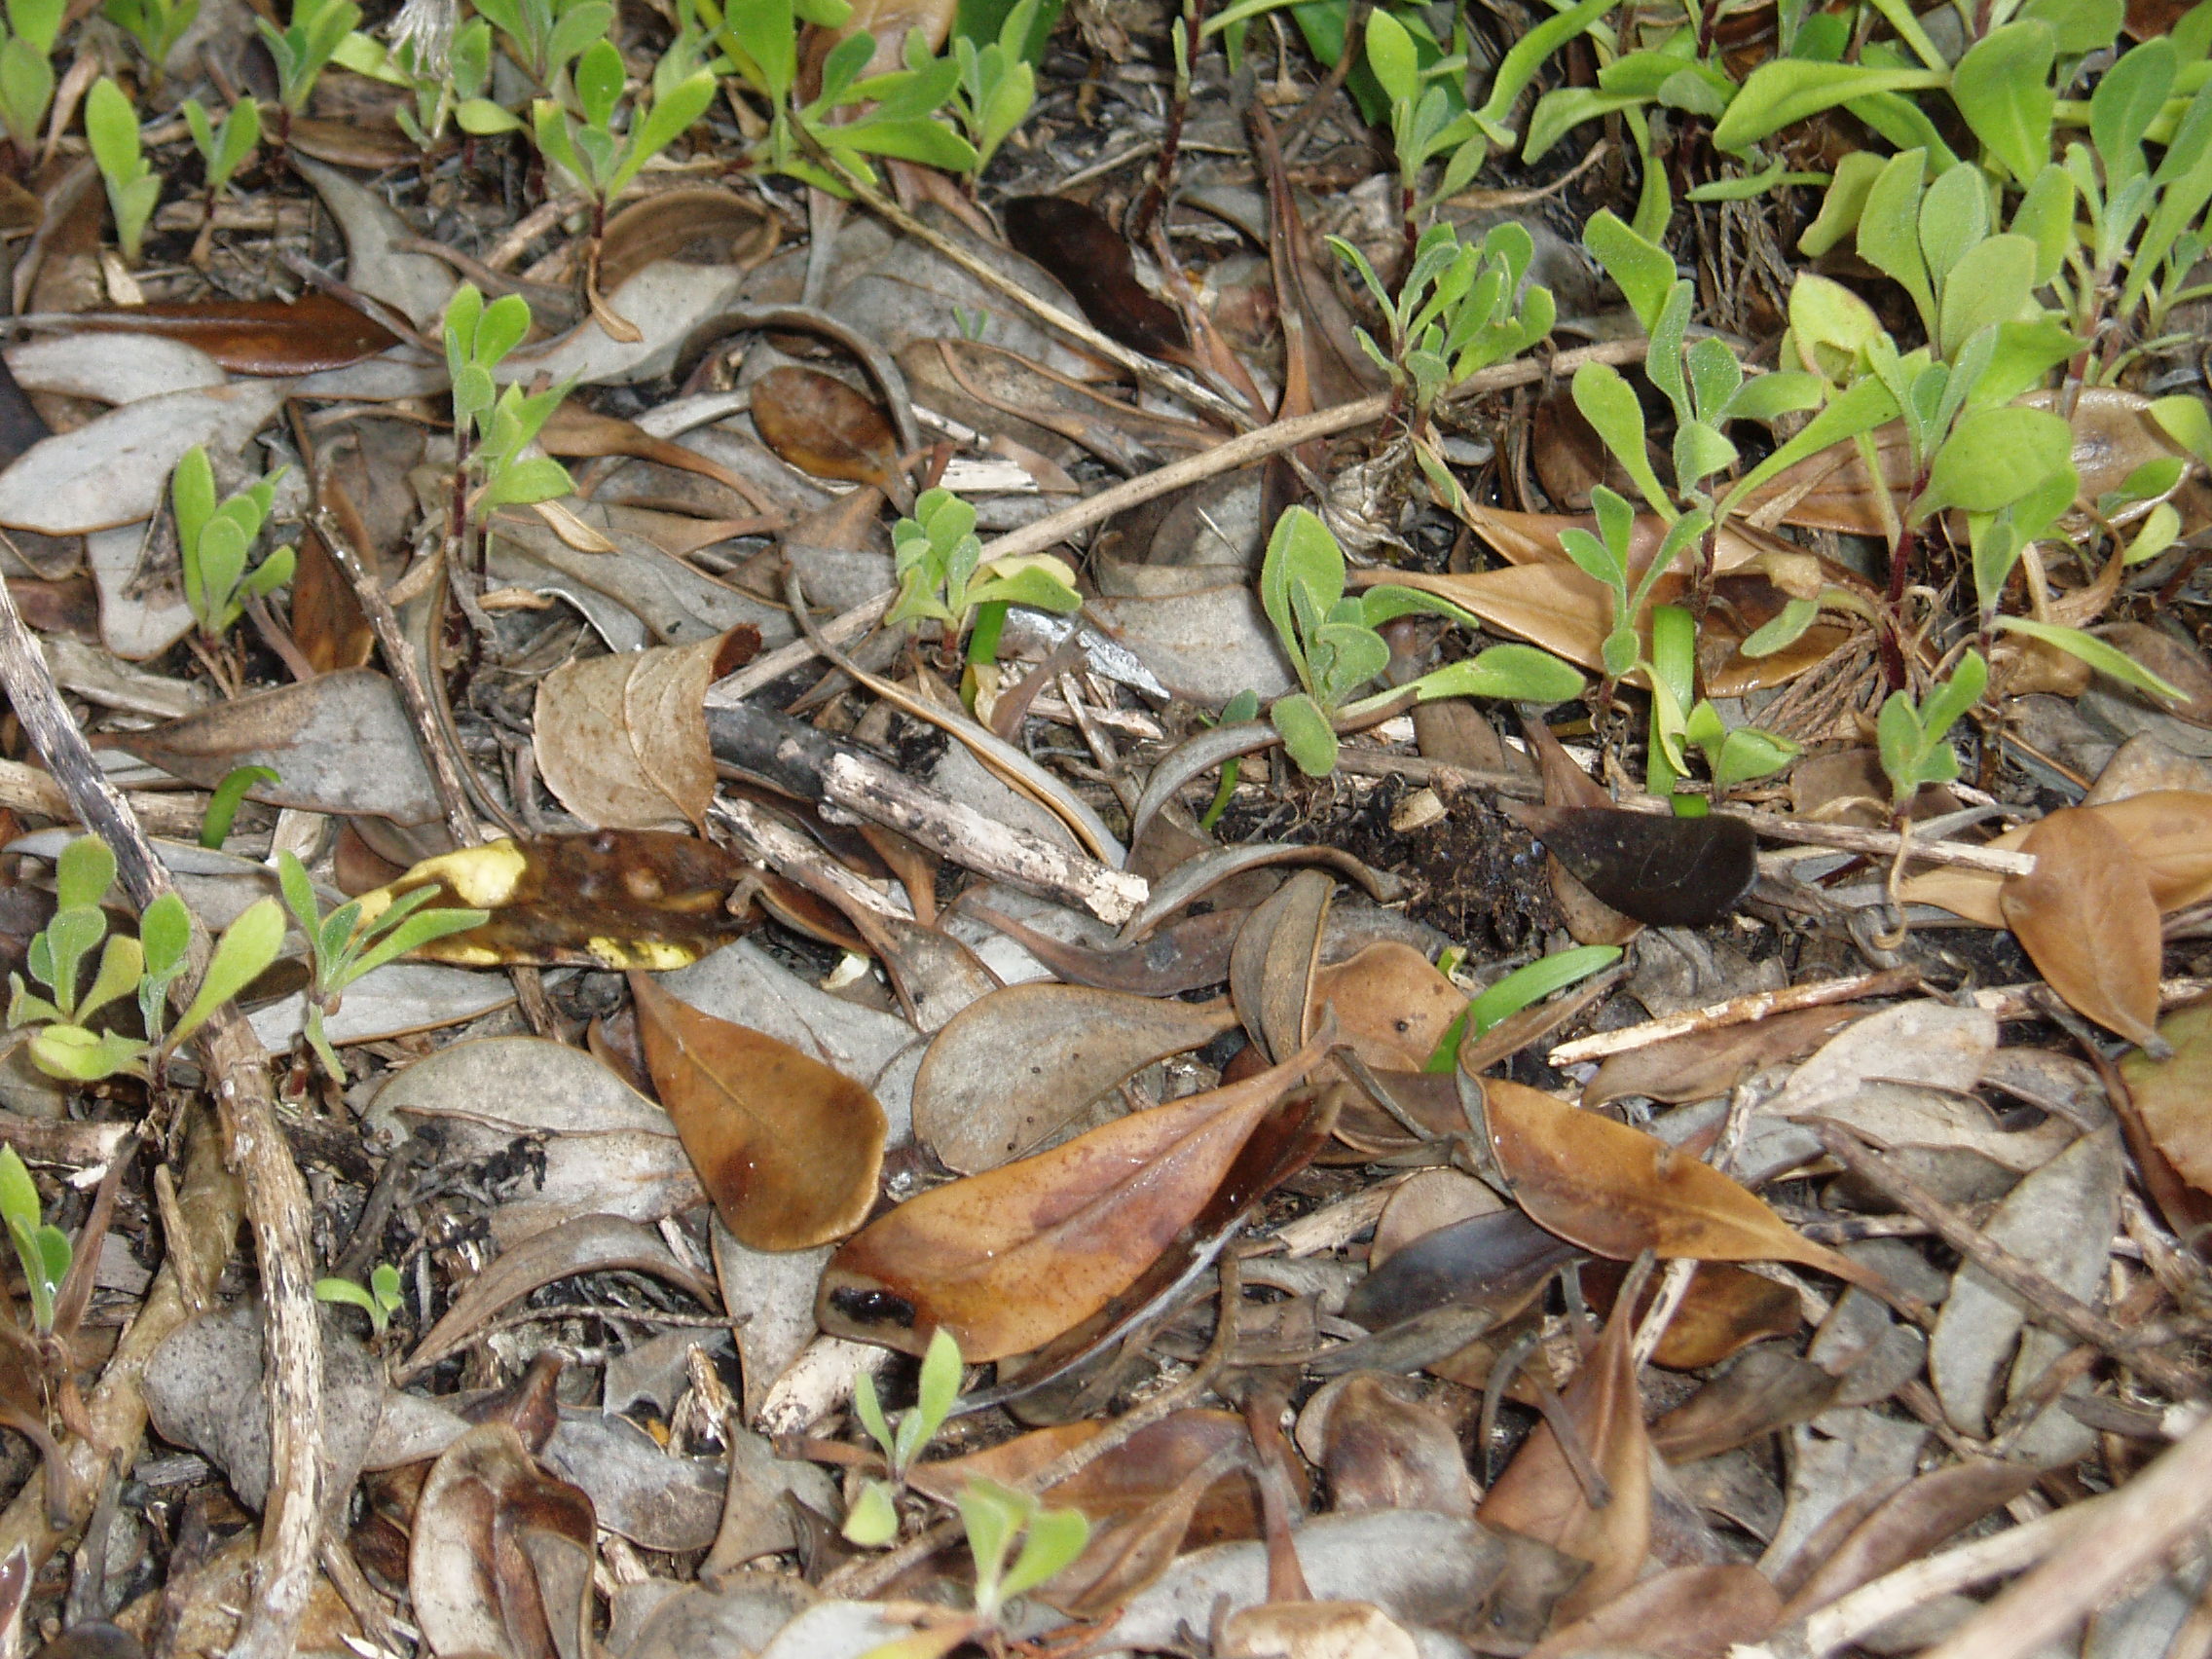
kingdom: Plantae
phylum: Tracheophyta
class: Magnoliopsida
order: Asterales
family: Asteraceae
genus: Osteospermum
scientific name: Osteospermum fruticosum
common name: Shrubby daisybush
